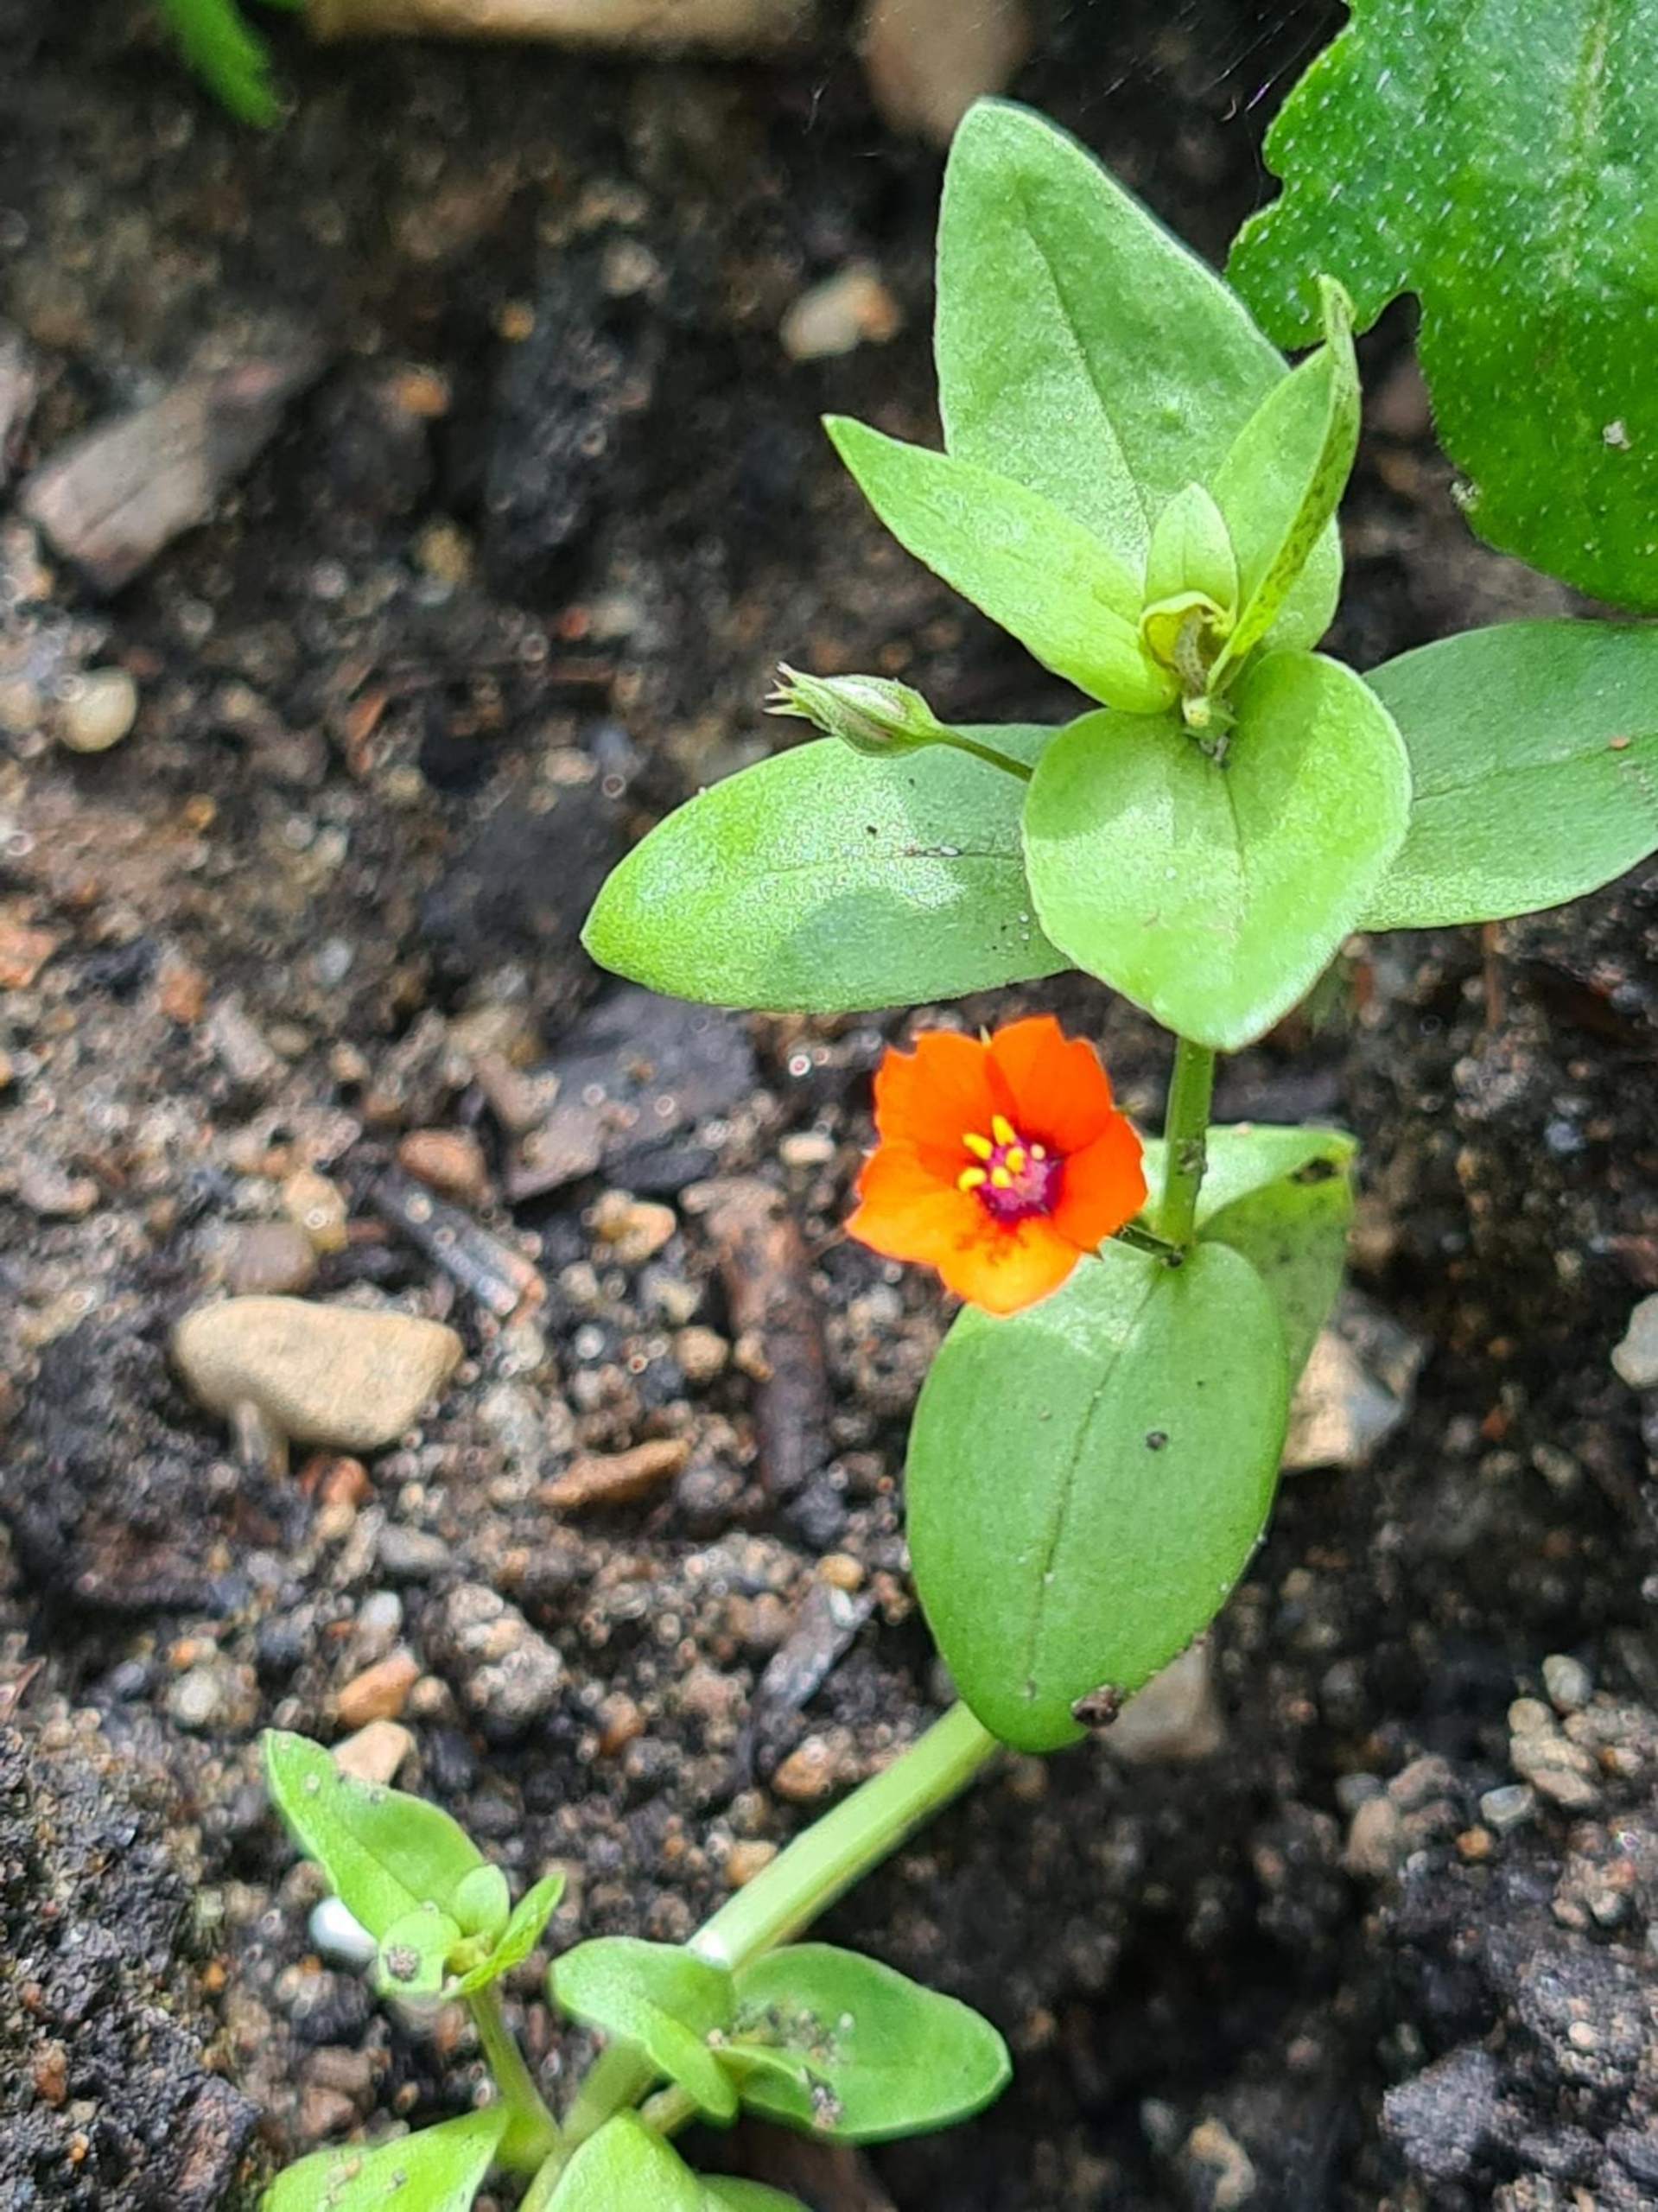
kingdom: Plantae
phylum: Tracheophyta
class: Magnoliopsida
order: Ericales
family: Primulaceae
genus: Lysimachia
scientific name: Lysimachia arvensis
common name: Rød arve
